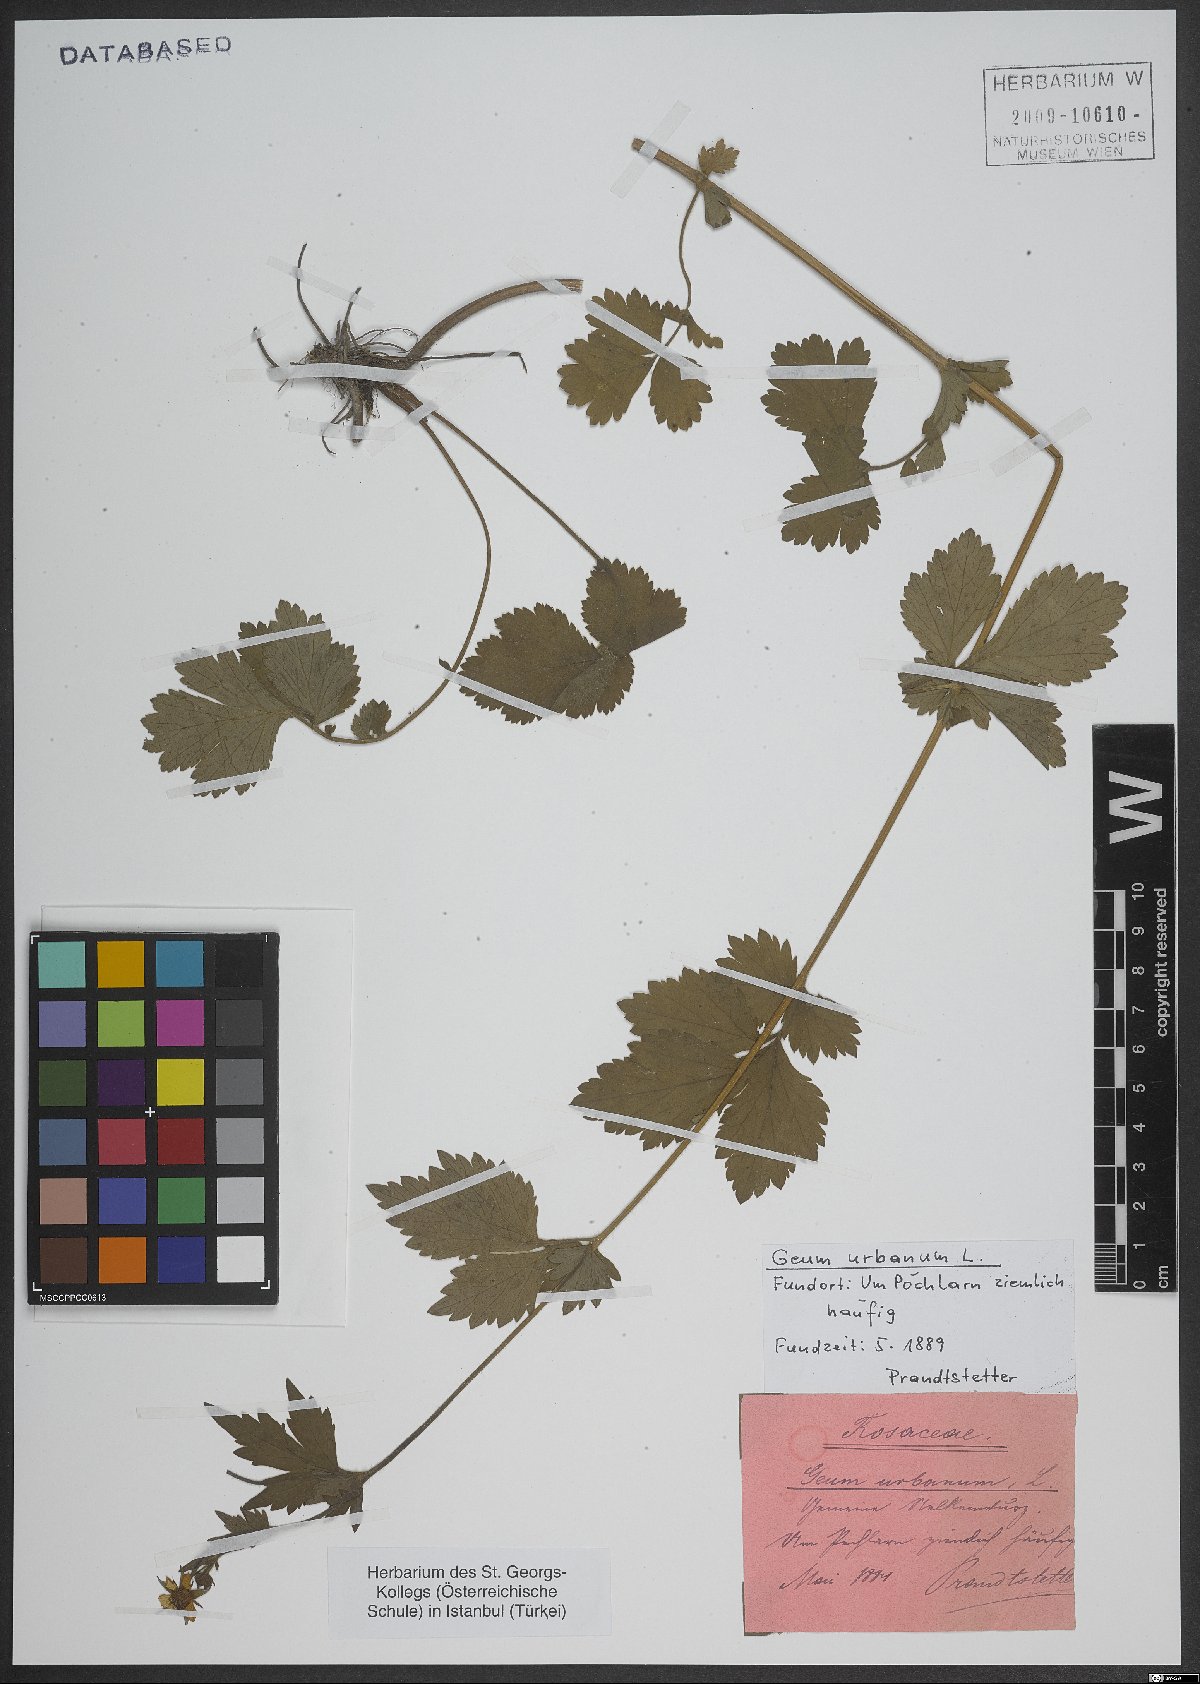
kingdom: Plantae
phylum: Tracheophyta
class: Magnoliopsida
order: Rosales
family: Rosaceae
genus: Geum
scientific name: Geum urbanum
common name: Wood avens
